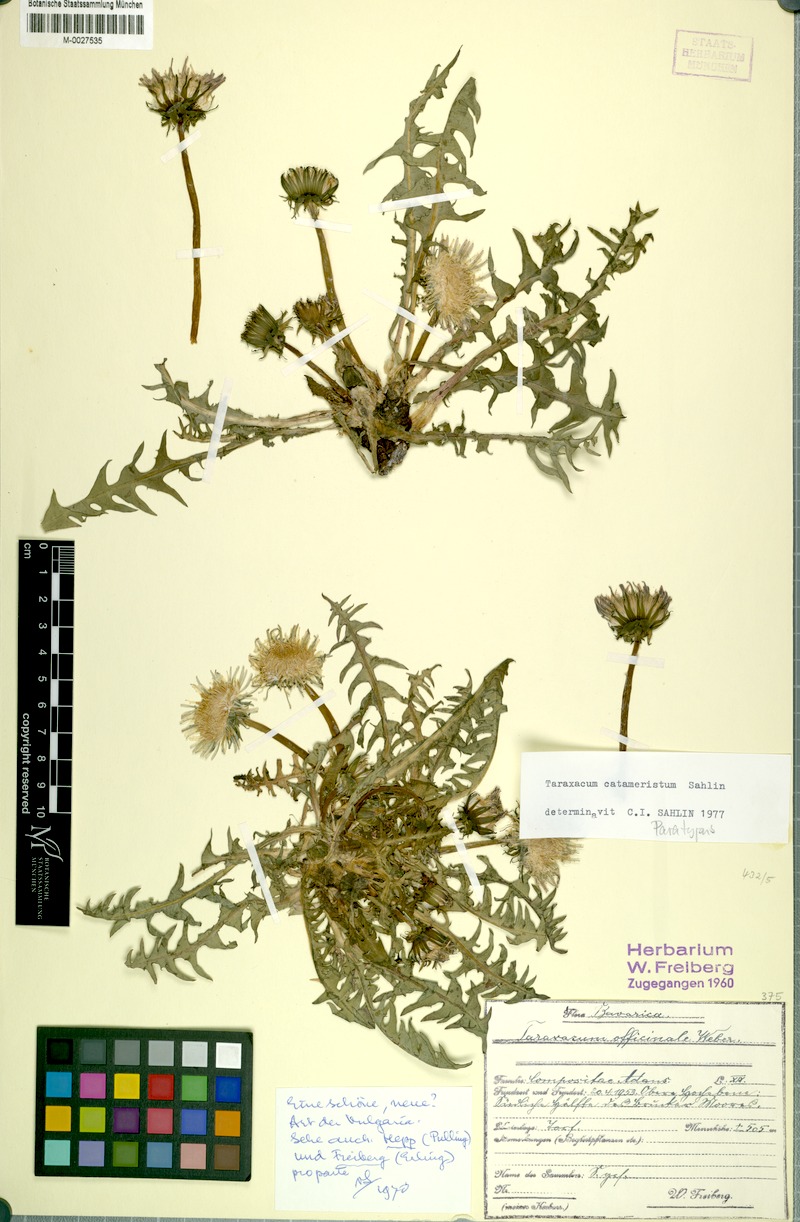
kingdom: Plantae
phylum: Tracheophyta
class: Magnoliopsida
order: Asterales
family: Asteraceae
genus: Taraxacum
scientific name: Taraxacum gentile
